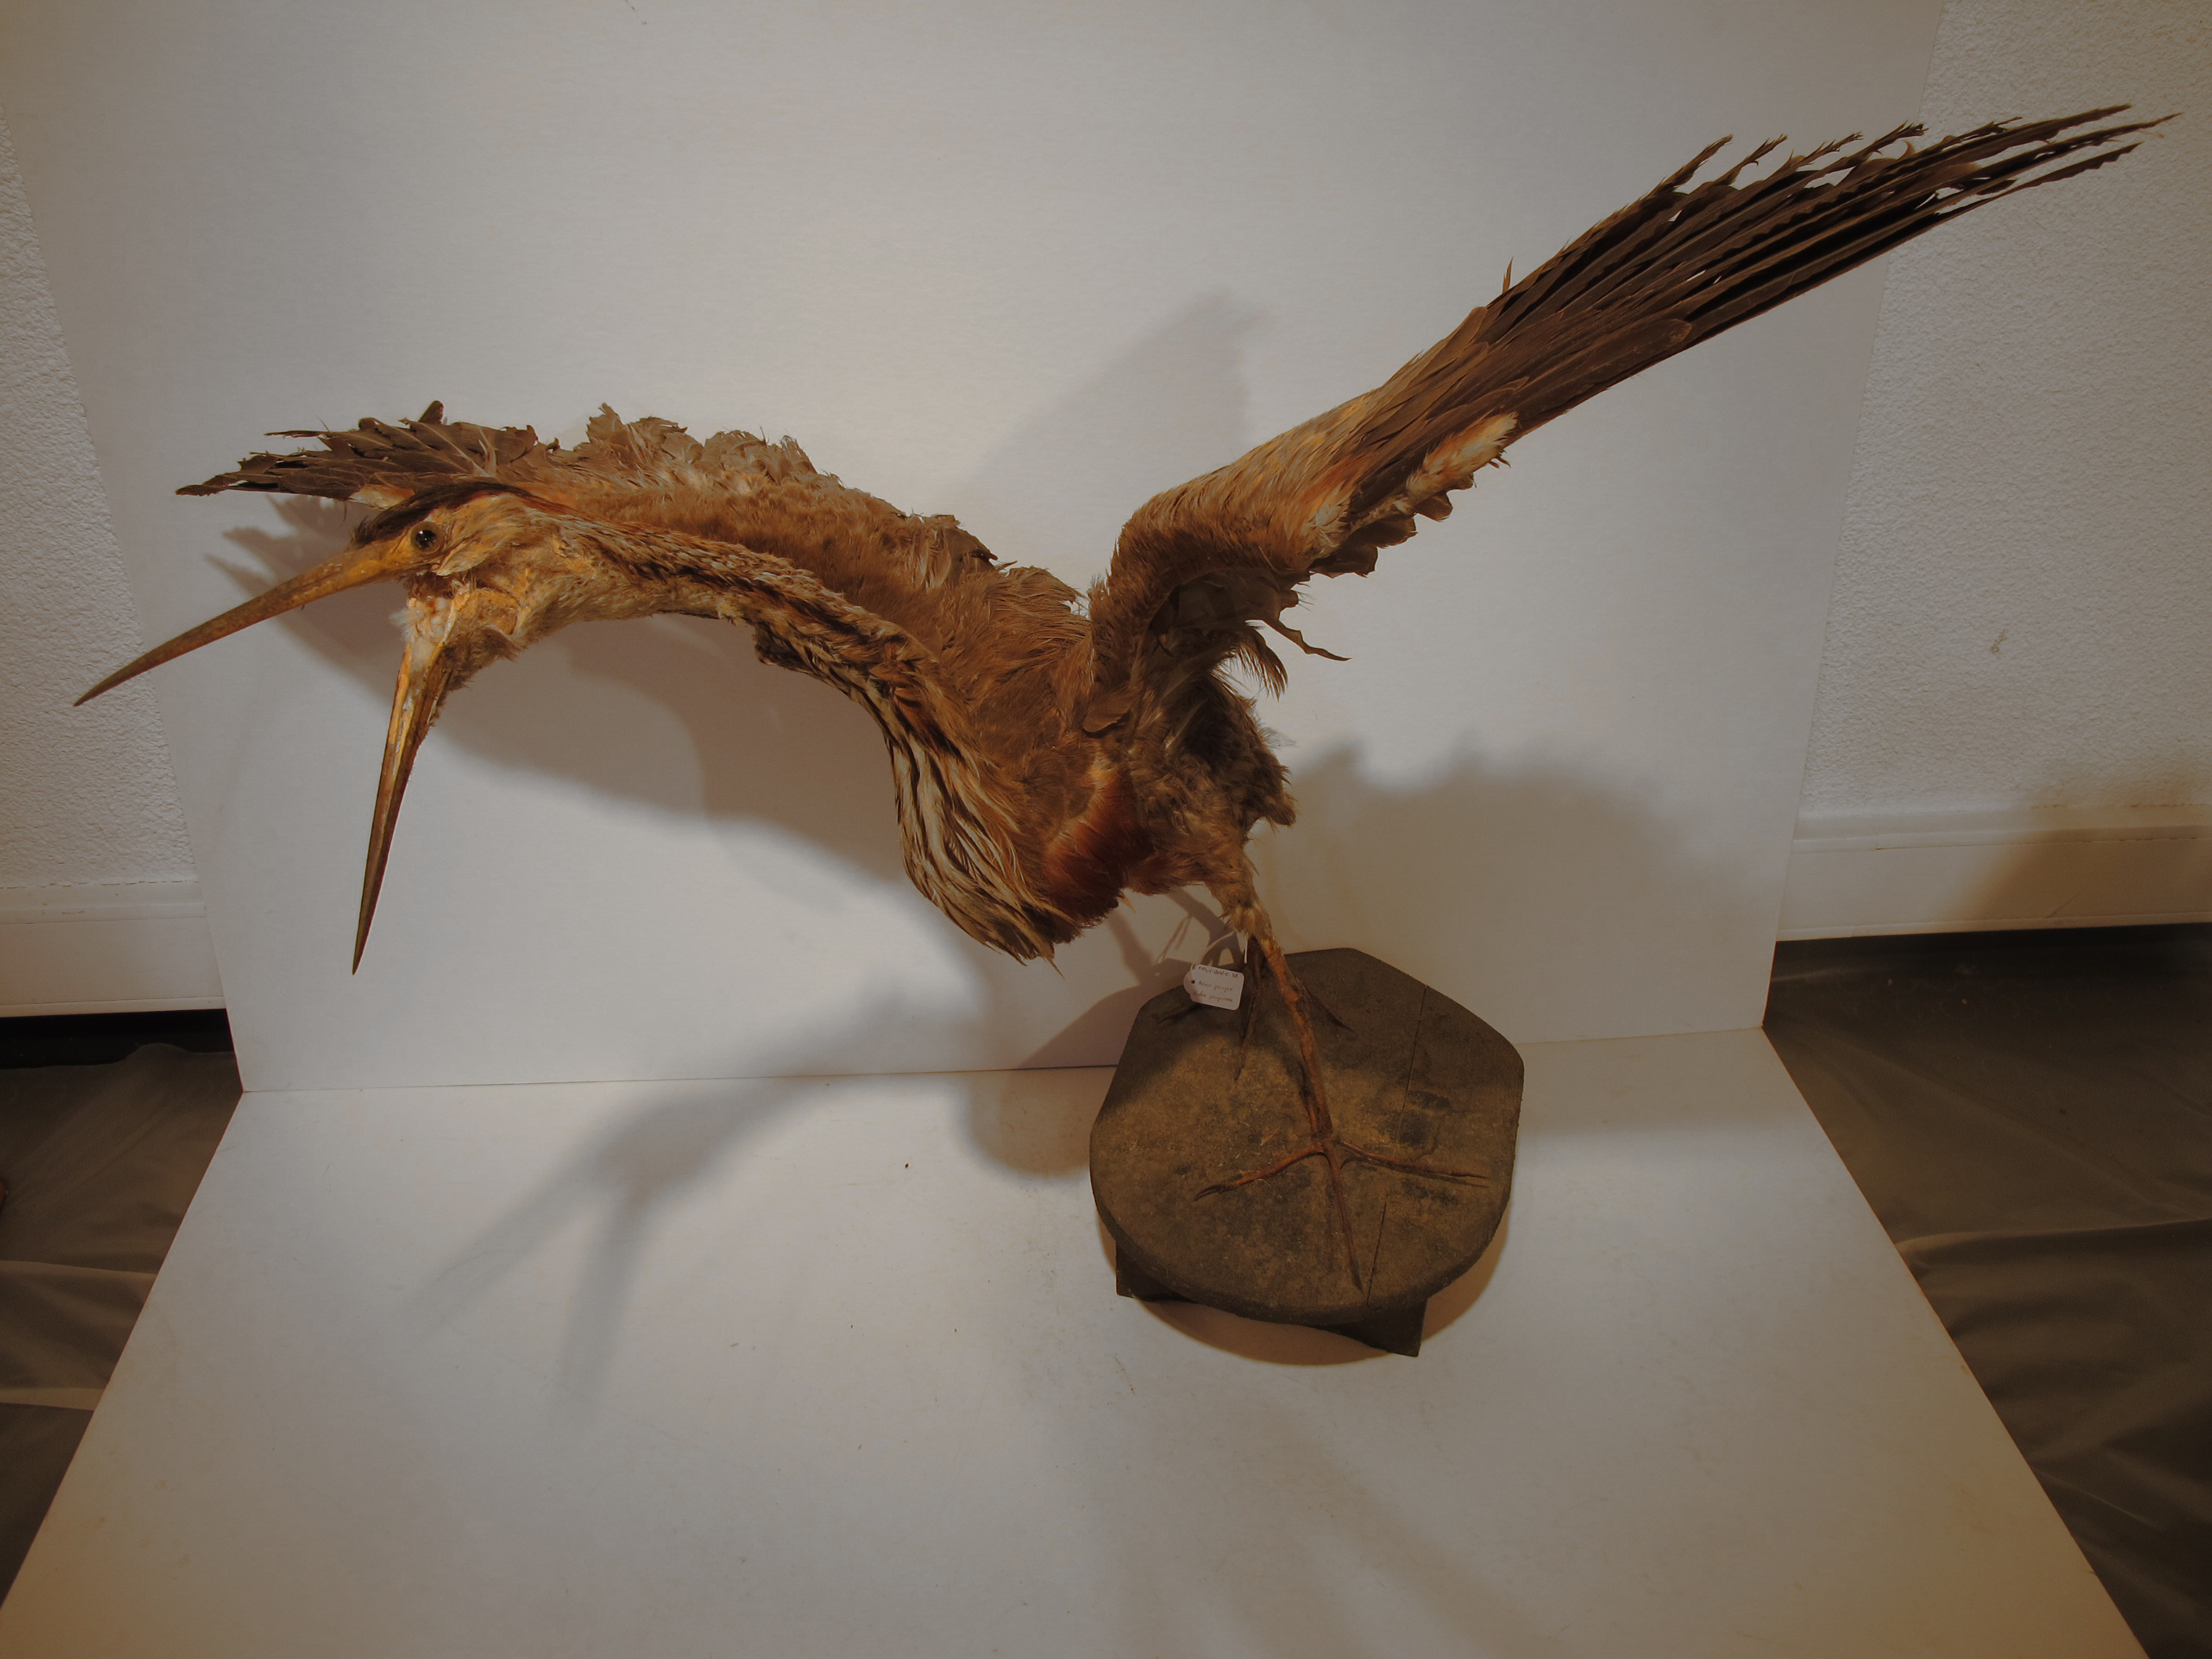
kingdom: Animalia
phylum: Chordata
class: Aves
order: Pelecaniformes
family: Ardeidae
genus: Ardea
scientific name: Ardea purpurea
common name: Purple Heron
